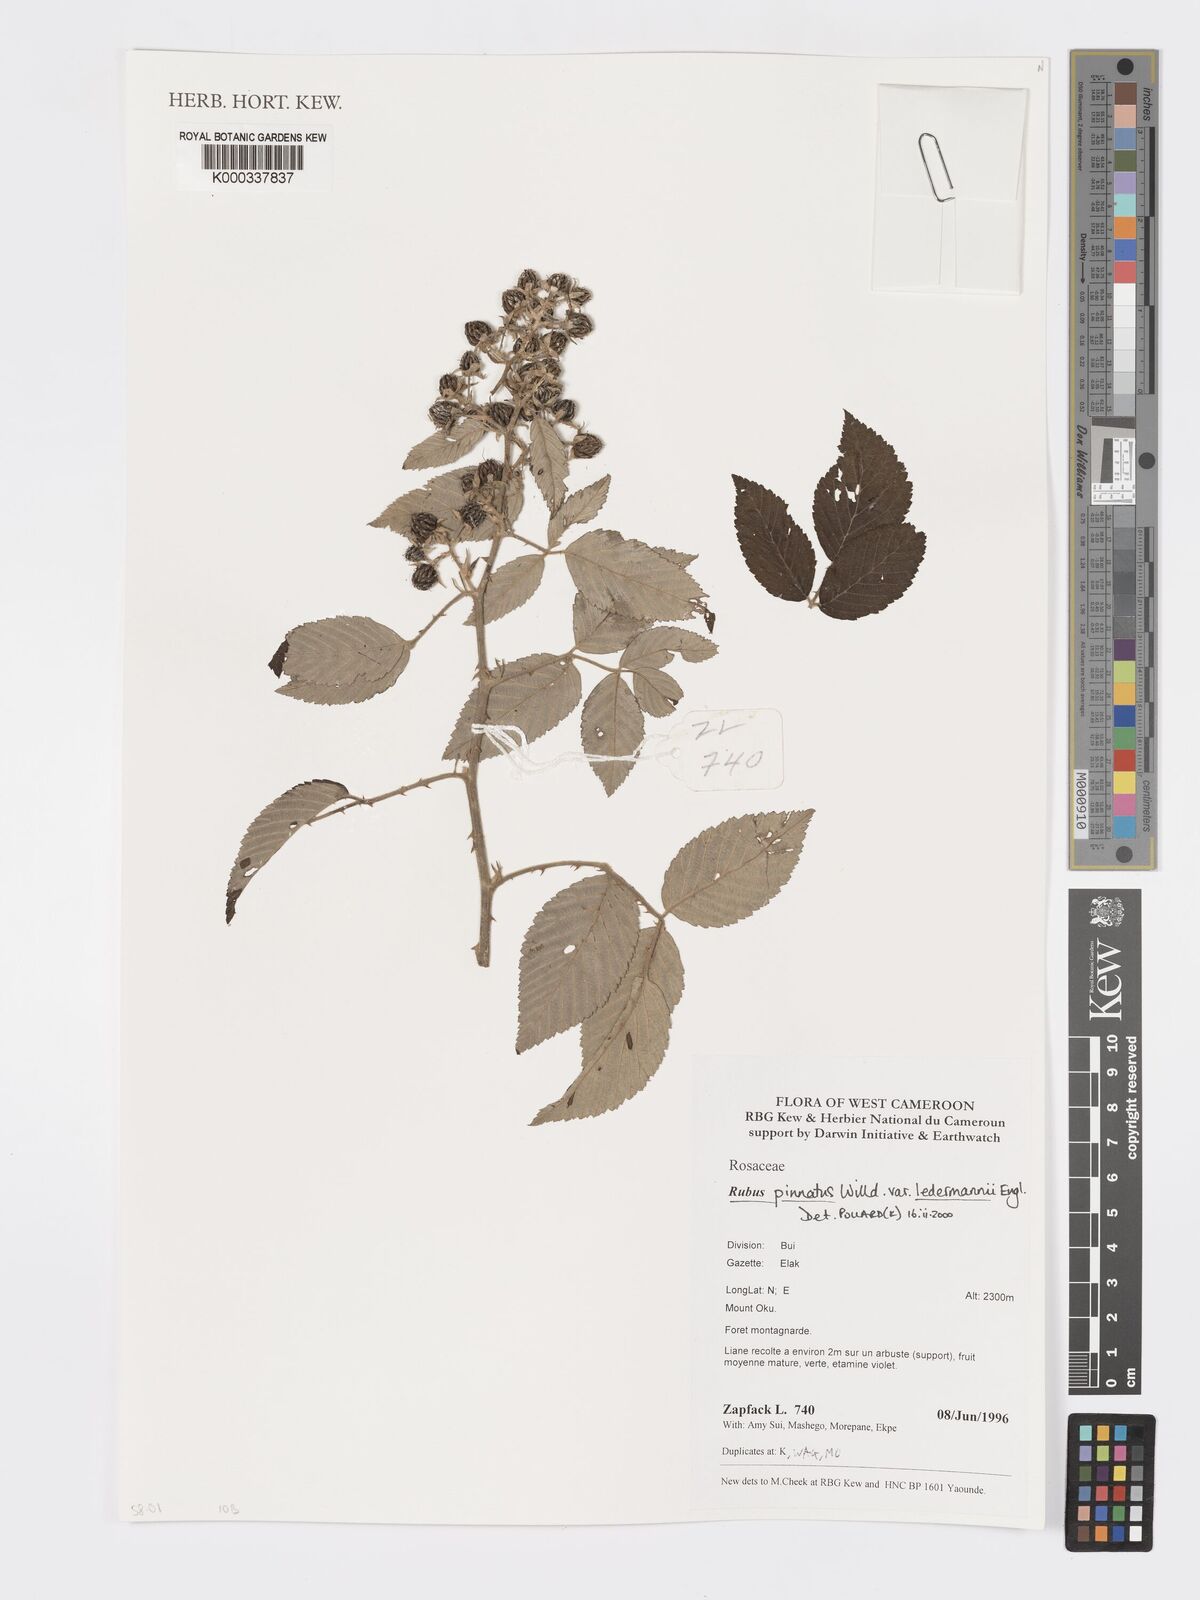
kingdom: Plantae
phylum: Tracheophyta
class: Magnoliopsida
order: Rosales
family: Rosaceae
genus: Rubus
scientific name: Rubus pinnatus
